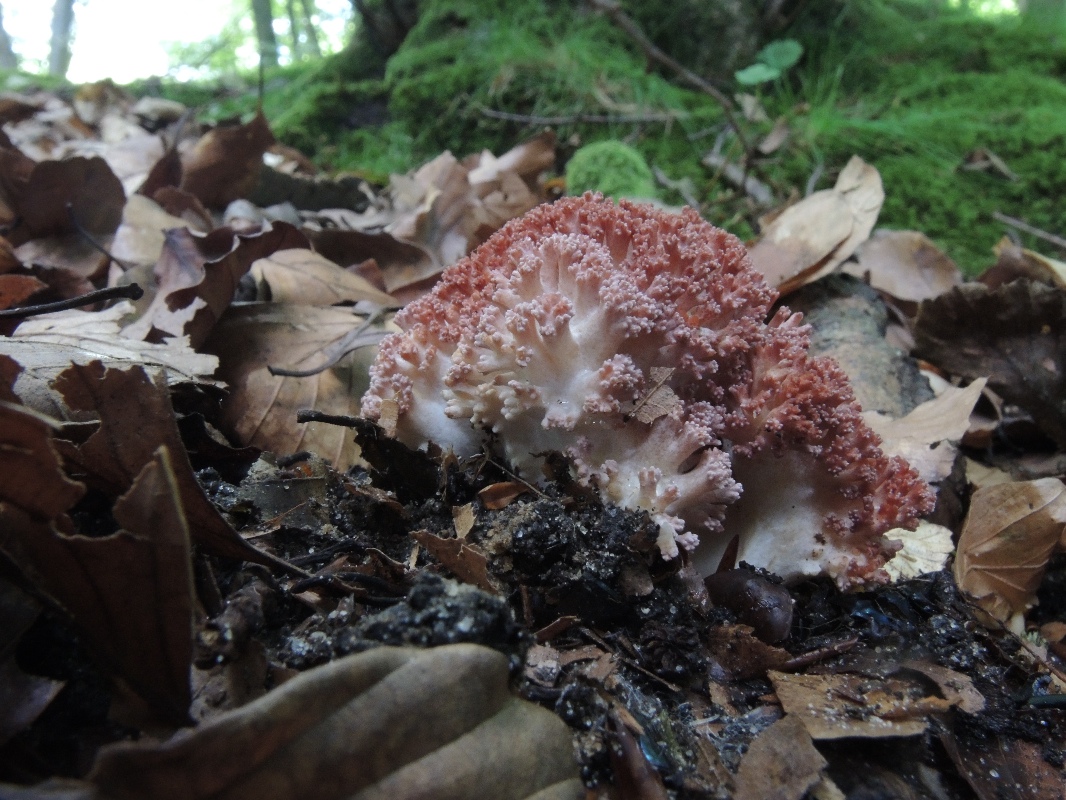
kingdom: Fungi
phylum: Basidiomycota
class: Agaricomycetes
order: Gomphales
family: Gomphaceae
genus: Ramaria
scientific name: Ramaria botrytis
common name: drue-koralsvamp
